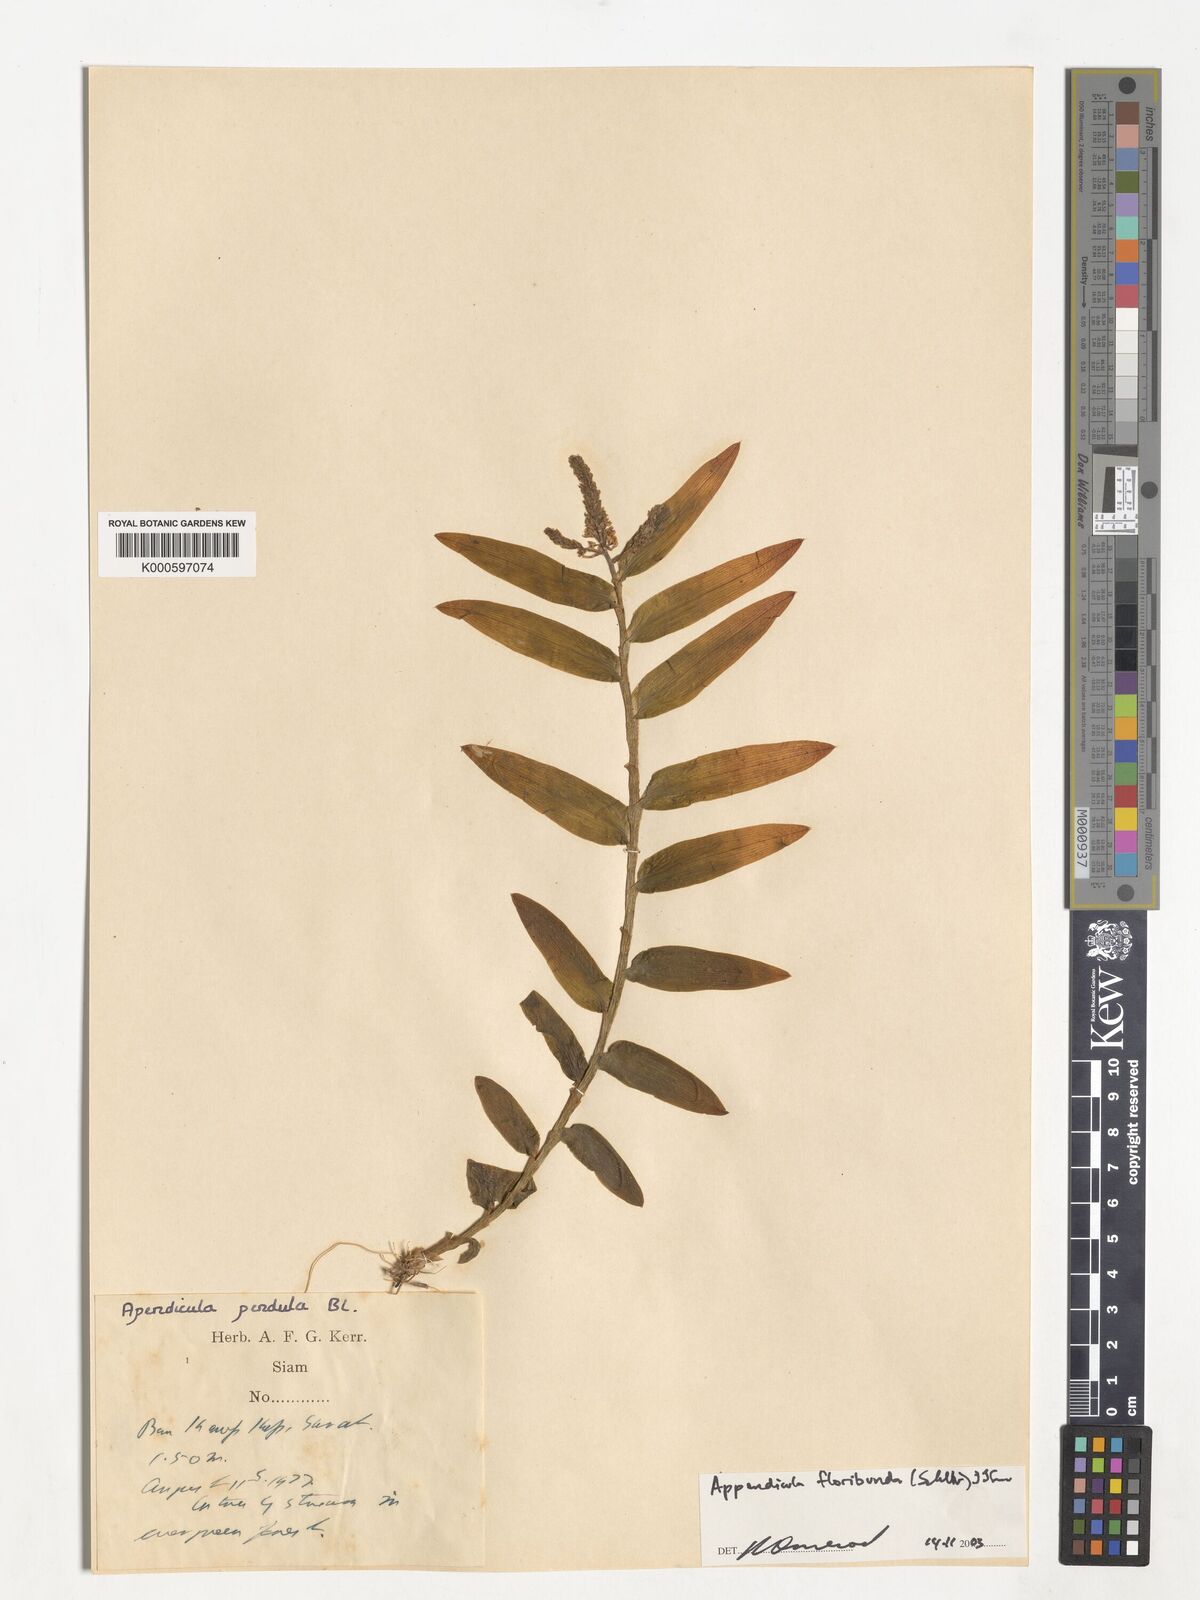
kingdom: Plantae
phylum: Tracheophyta
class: Liliopsida
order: Asparagales
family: Orchidaceae
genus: Appendicula
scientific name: Appendicula floribunda
